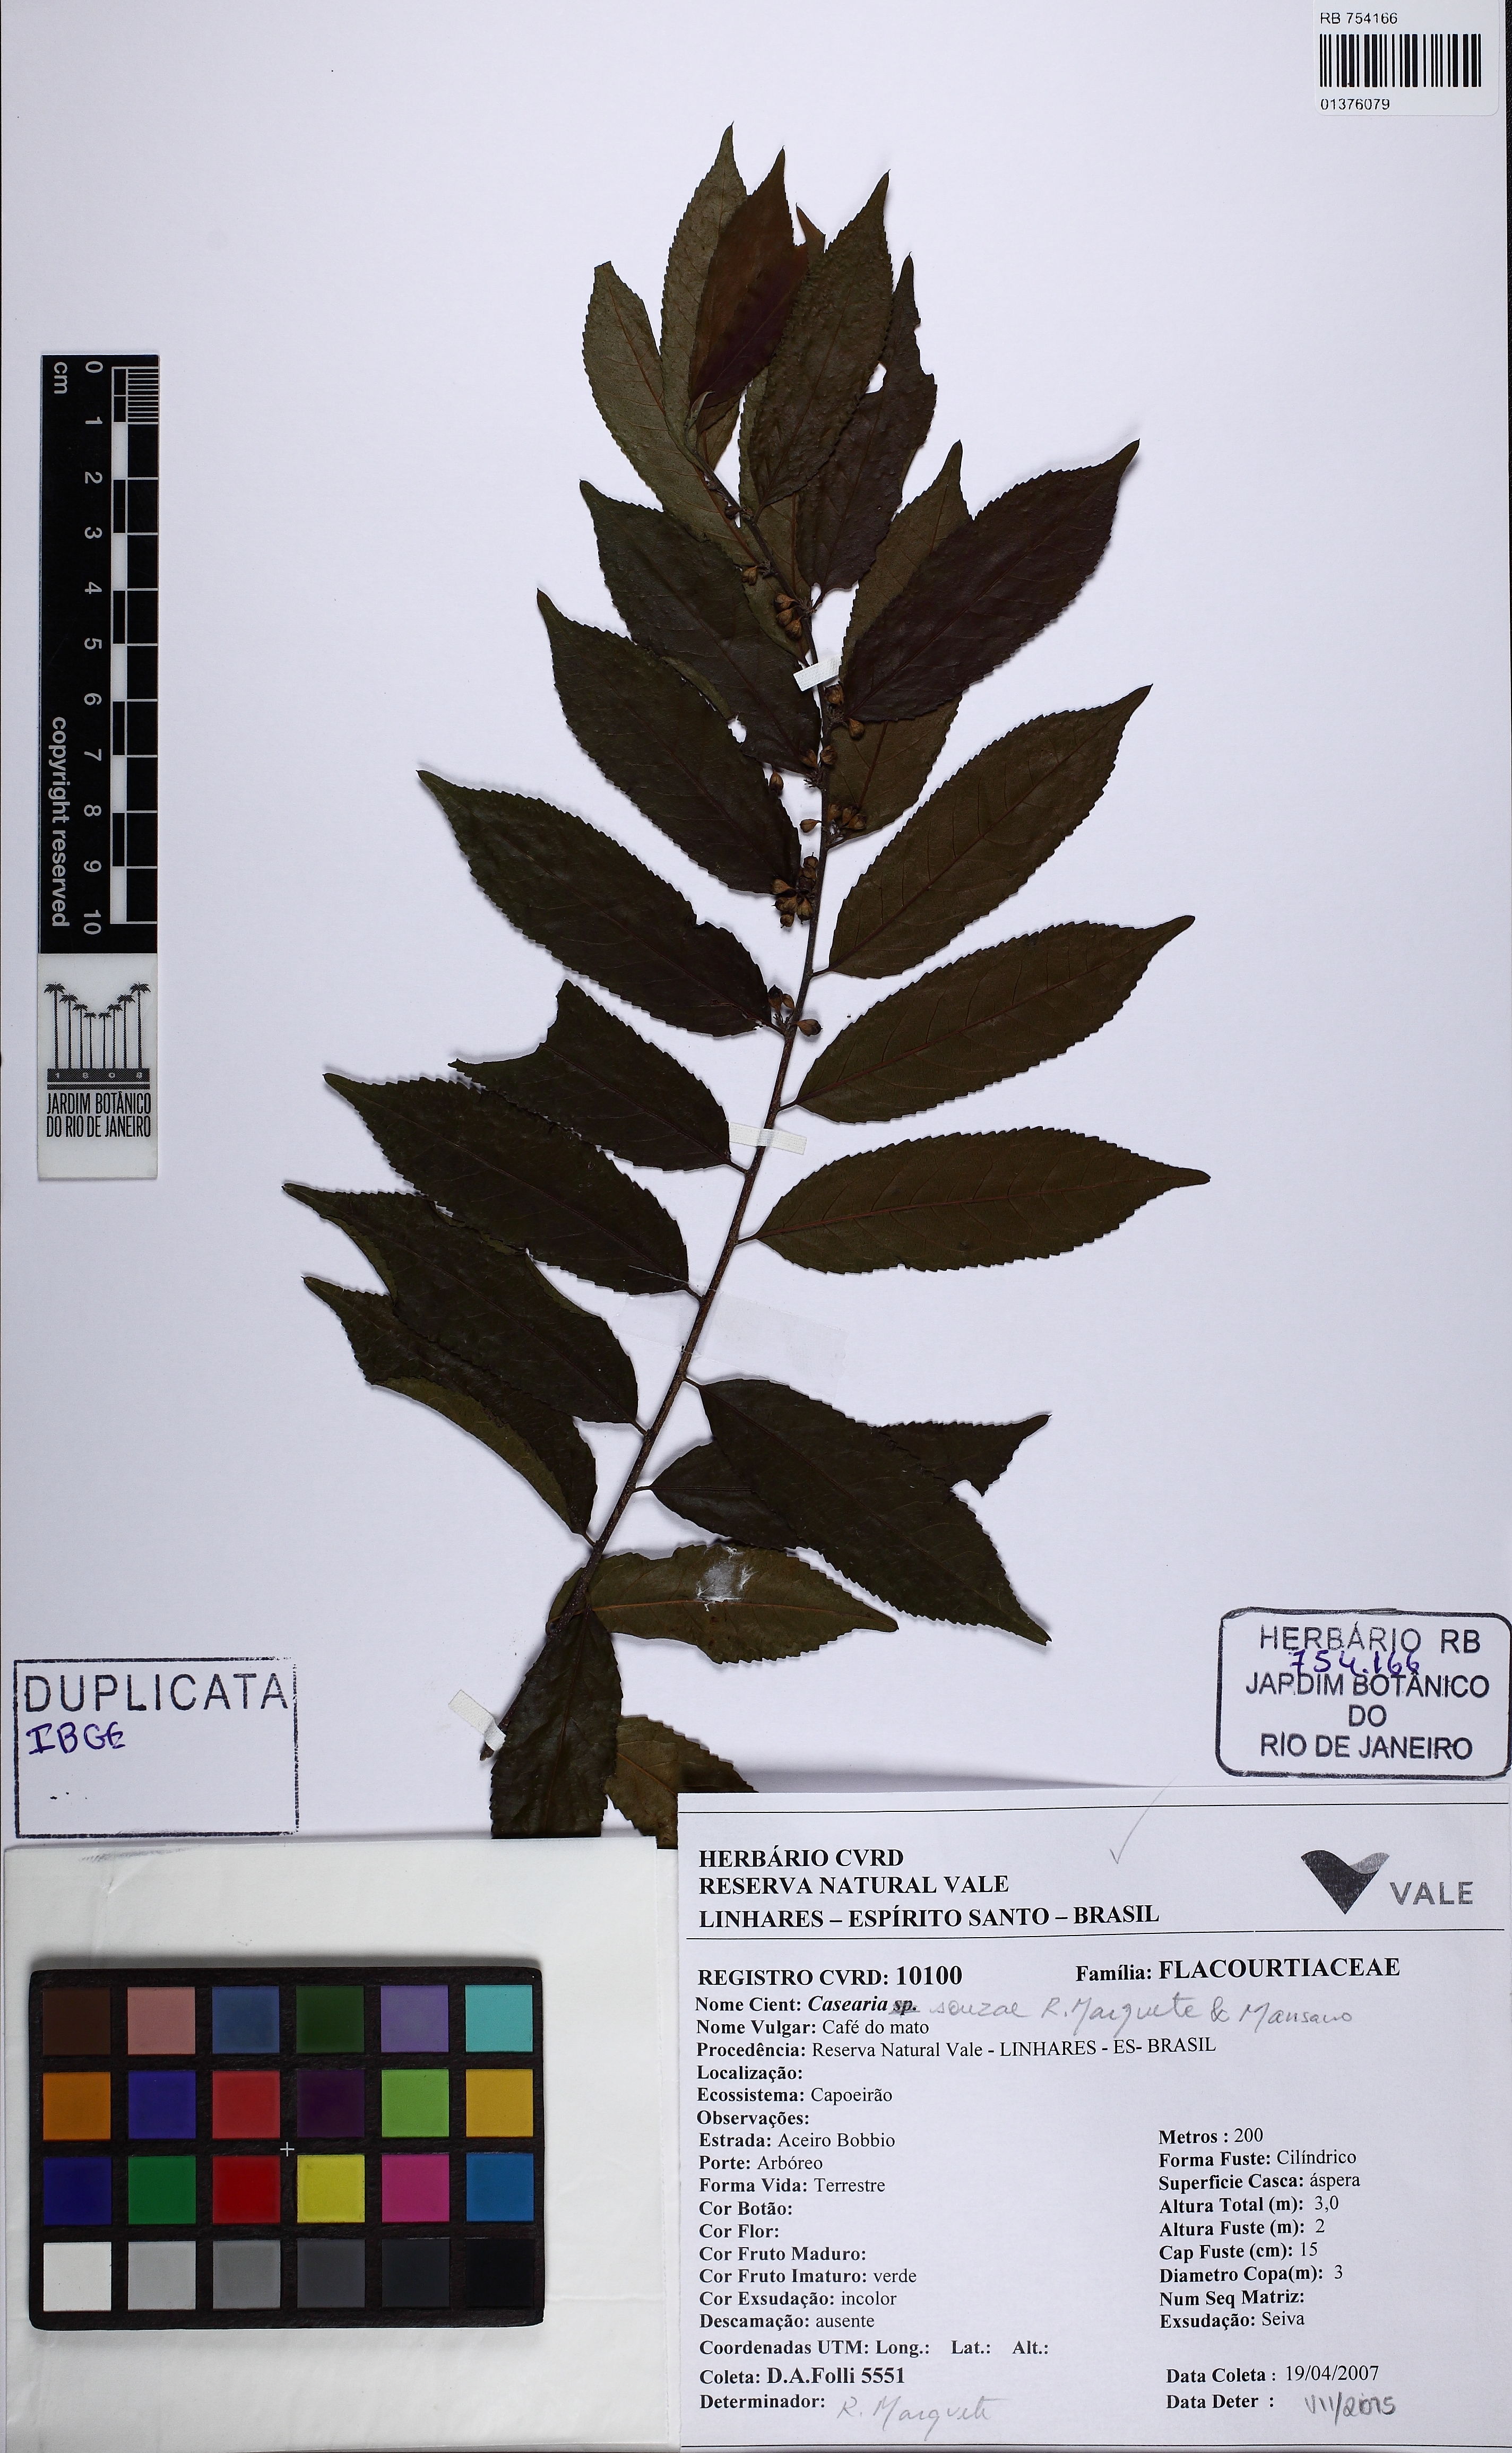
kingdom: Plantae
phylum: Tracheophyta
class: Magnoliopsida
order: Malpighiales
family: Salicaceae
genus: Casearia
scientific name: Casearia souzae
